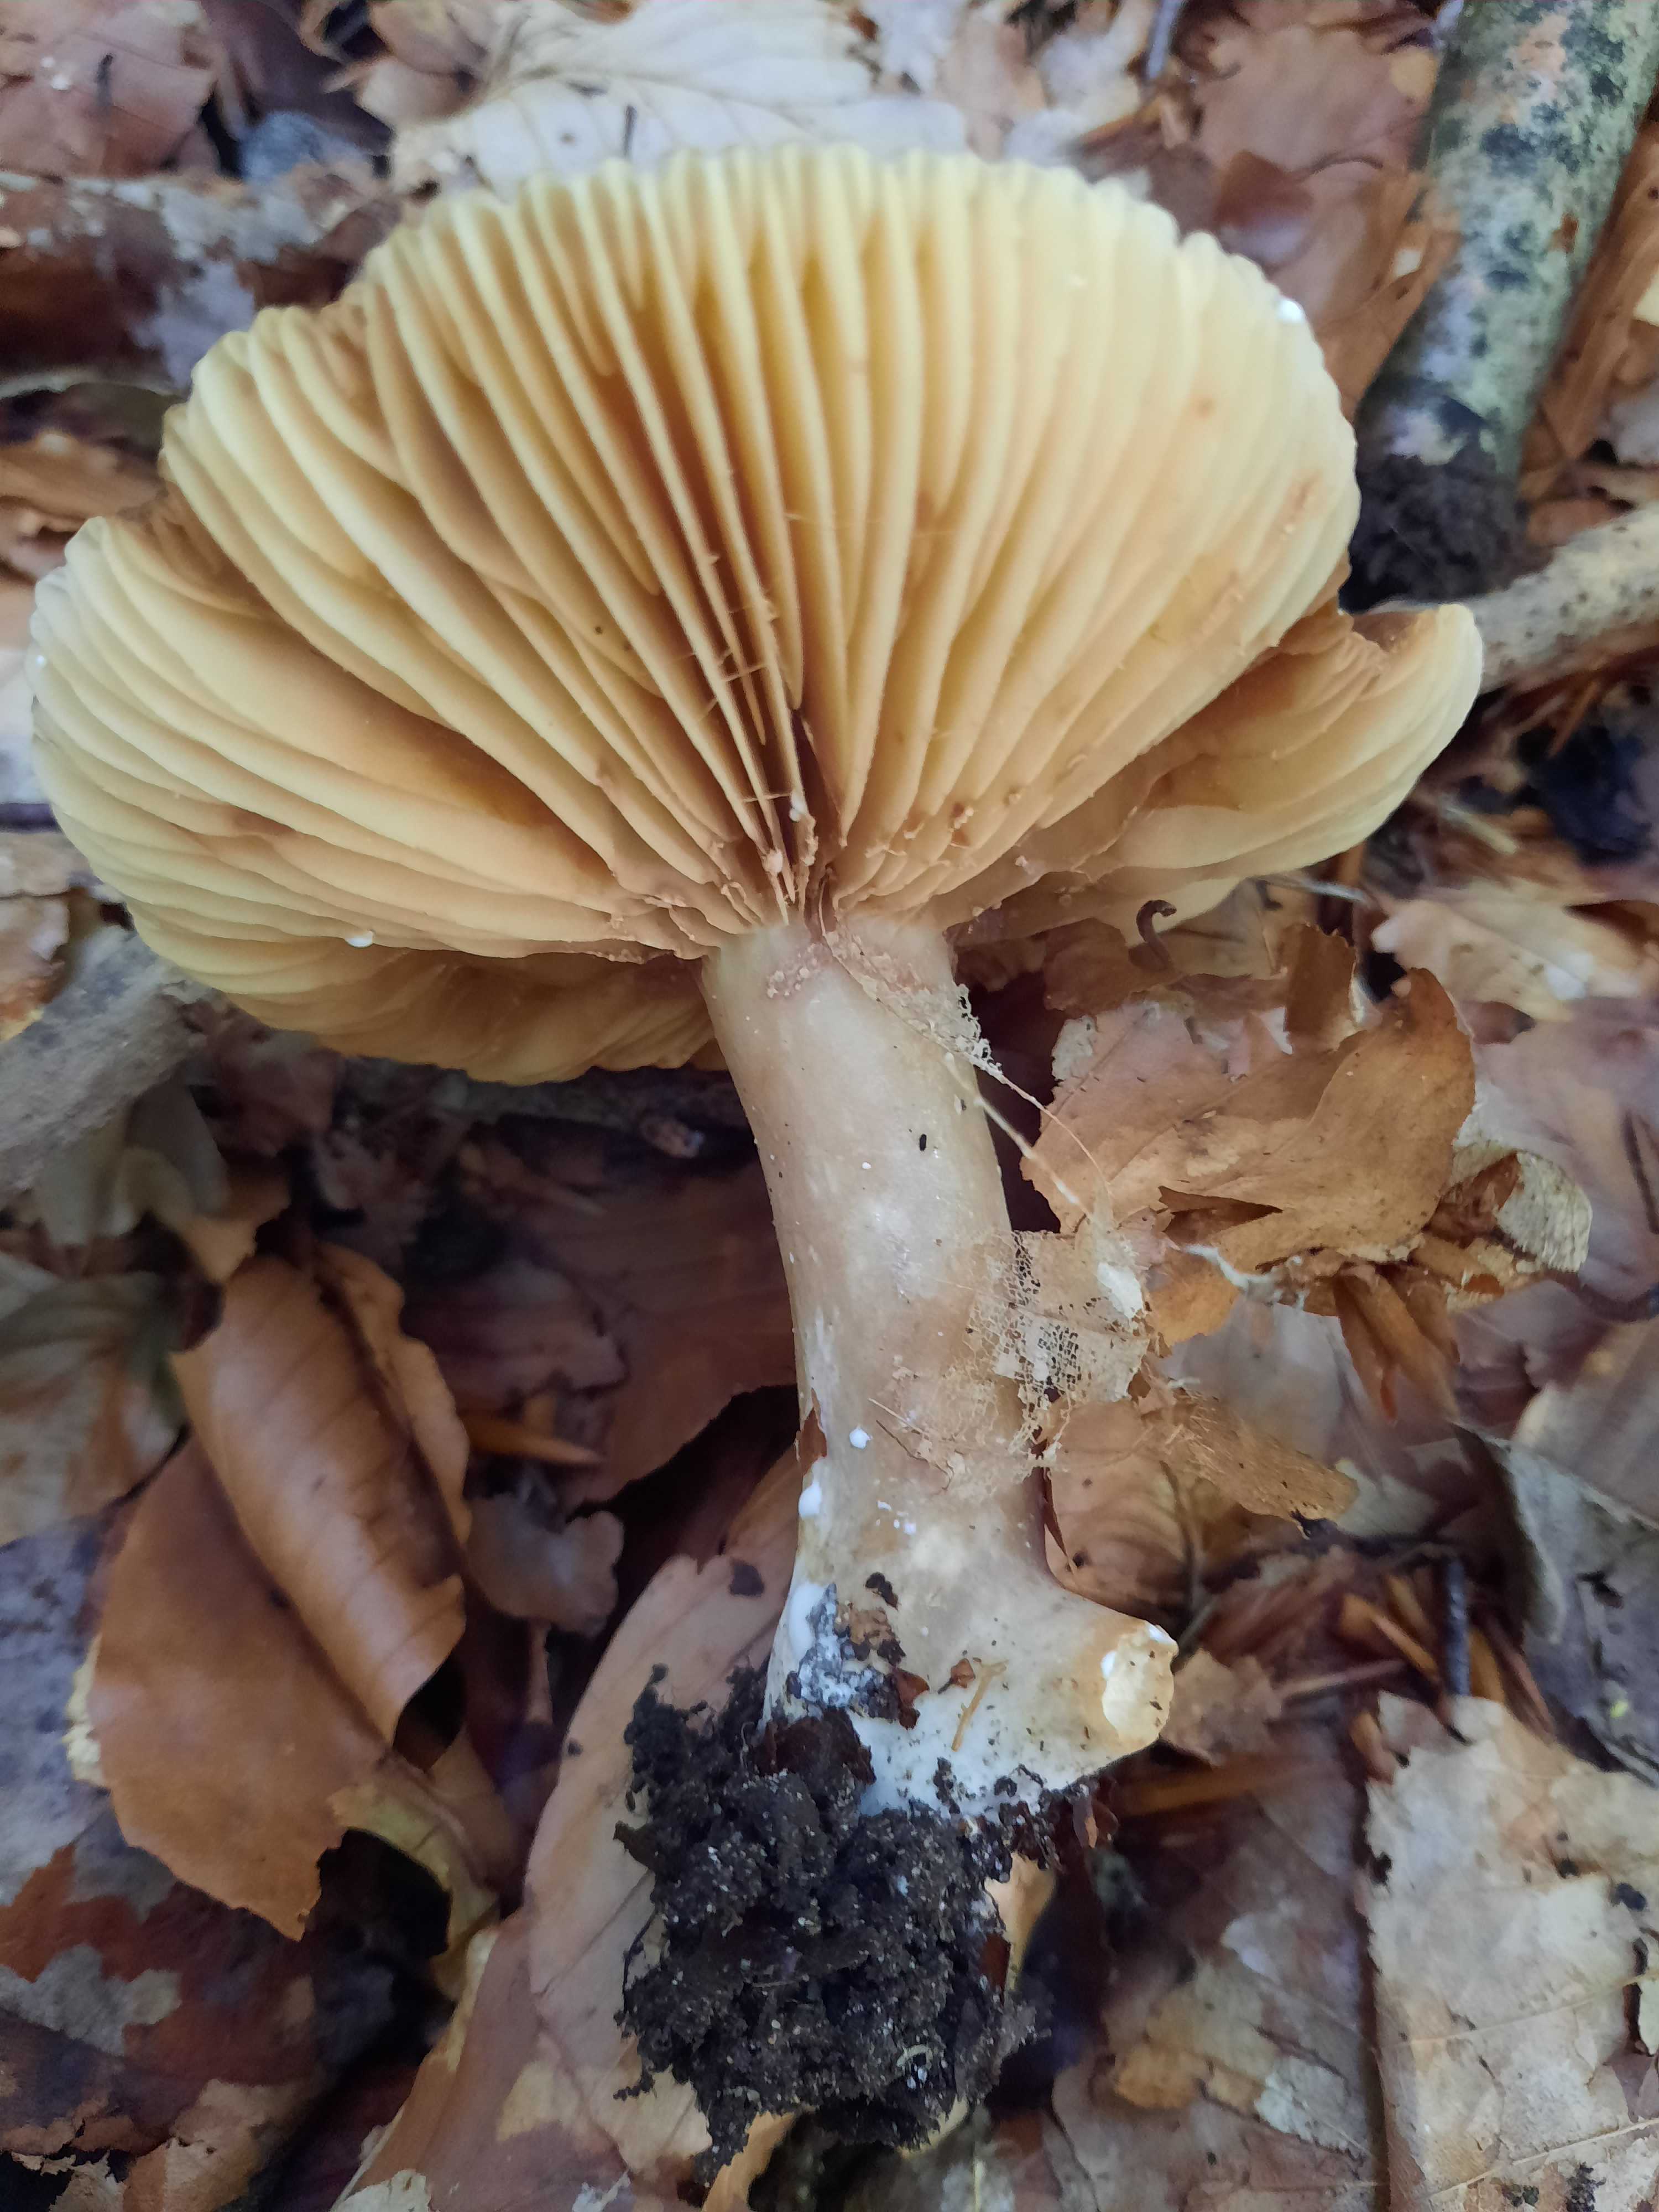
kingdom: Fungi
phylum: Basidiomycota
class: Agaricomycetes
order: Russulales
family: Russulaceae
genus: Lactarius
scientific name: Lactarius
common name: mælkehat
